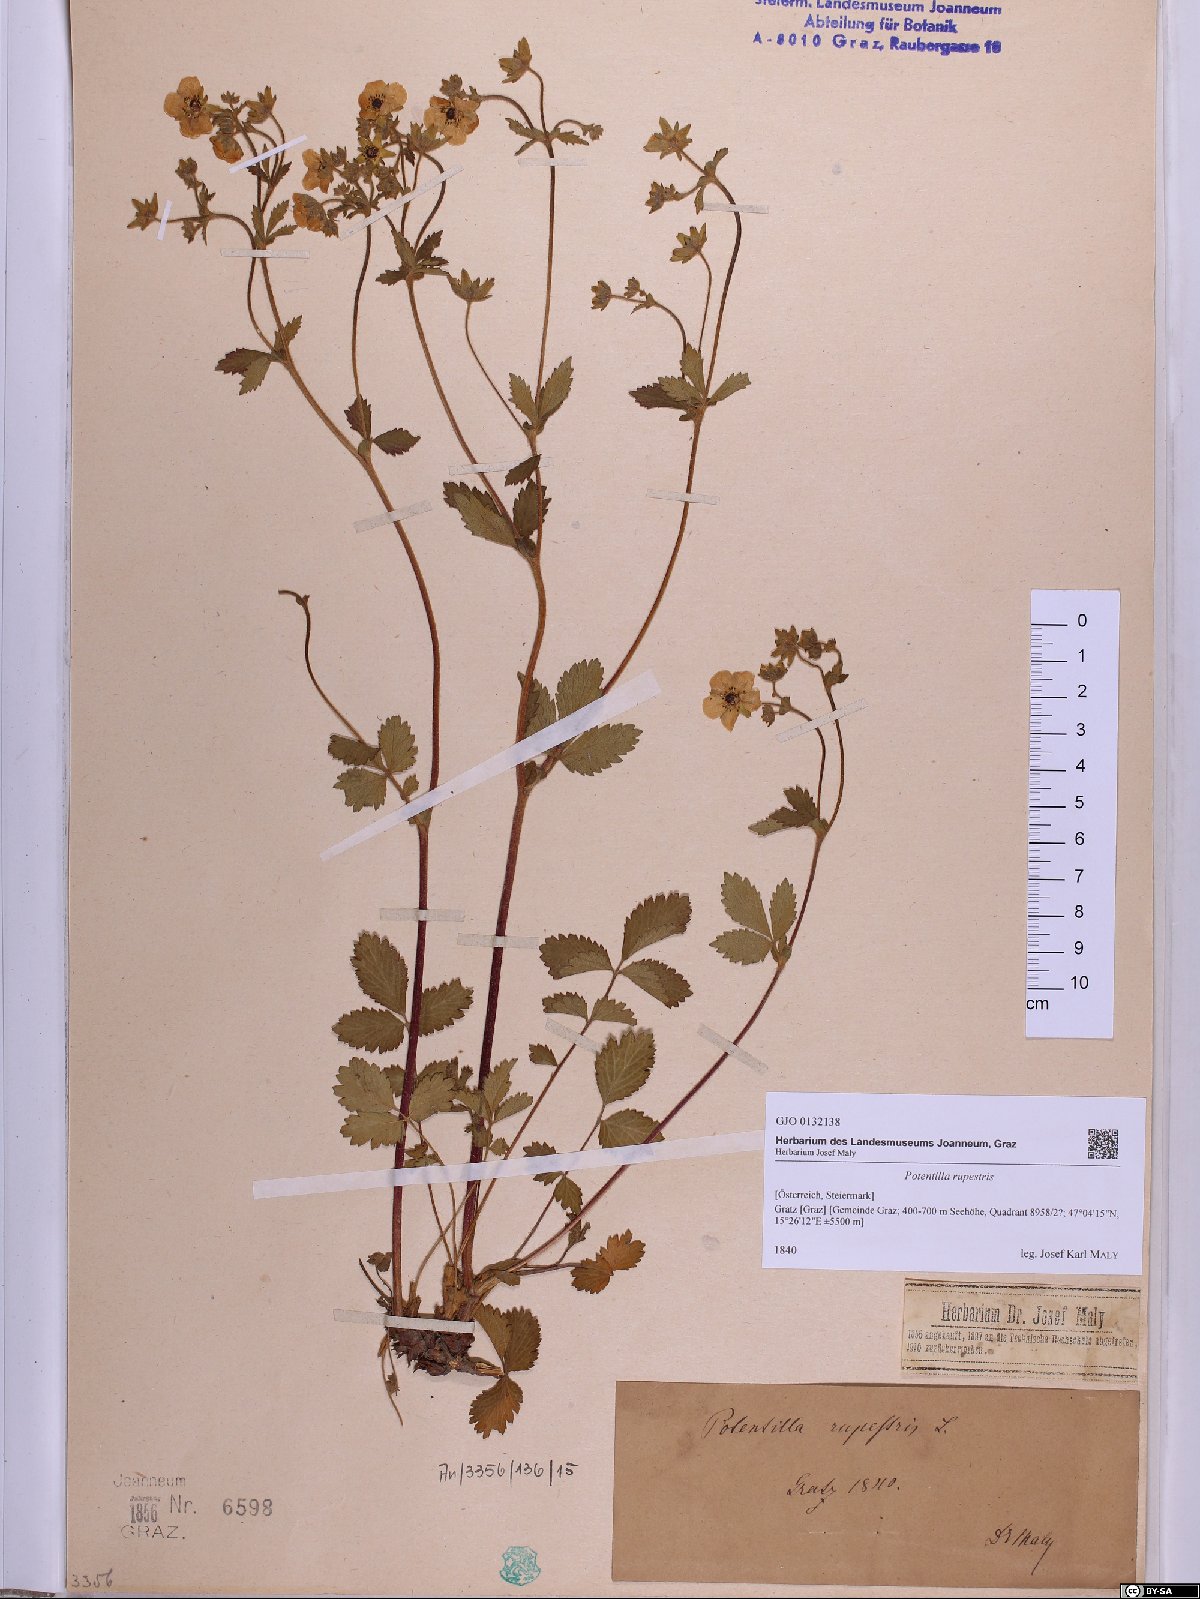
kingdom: Plantae
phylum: Tracheophyta
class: Magnoliopsida
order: Rosales
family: Rosaceae
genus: Drymocallis
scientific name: Drymocallis rupestris
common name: Rock cinquefoil
